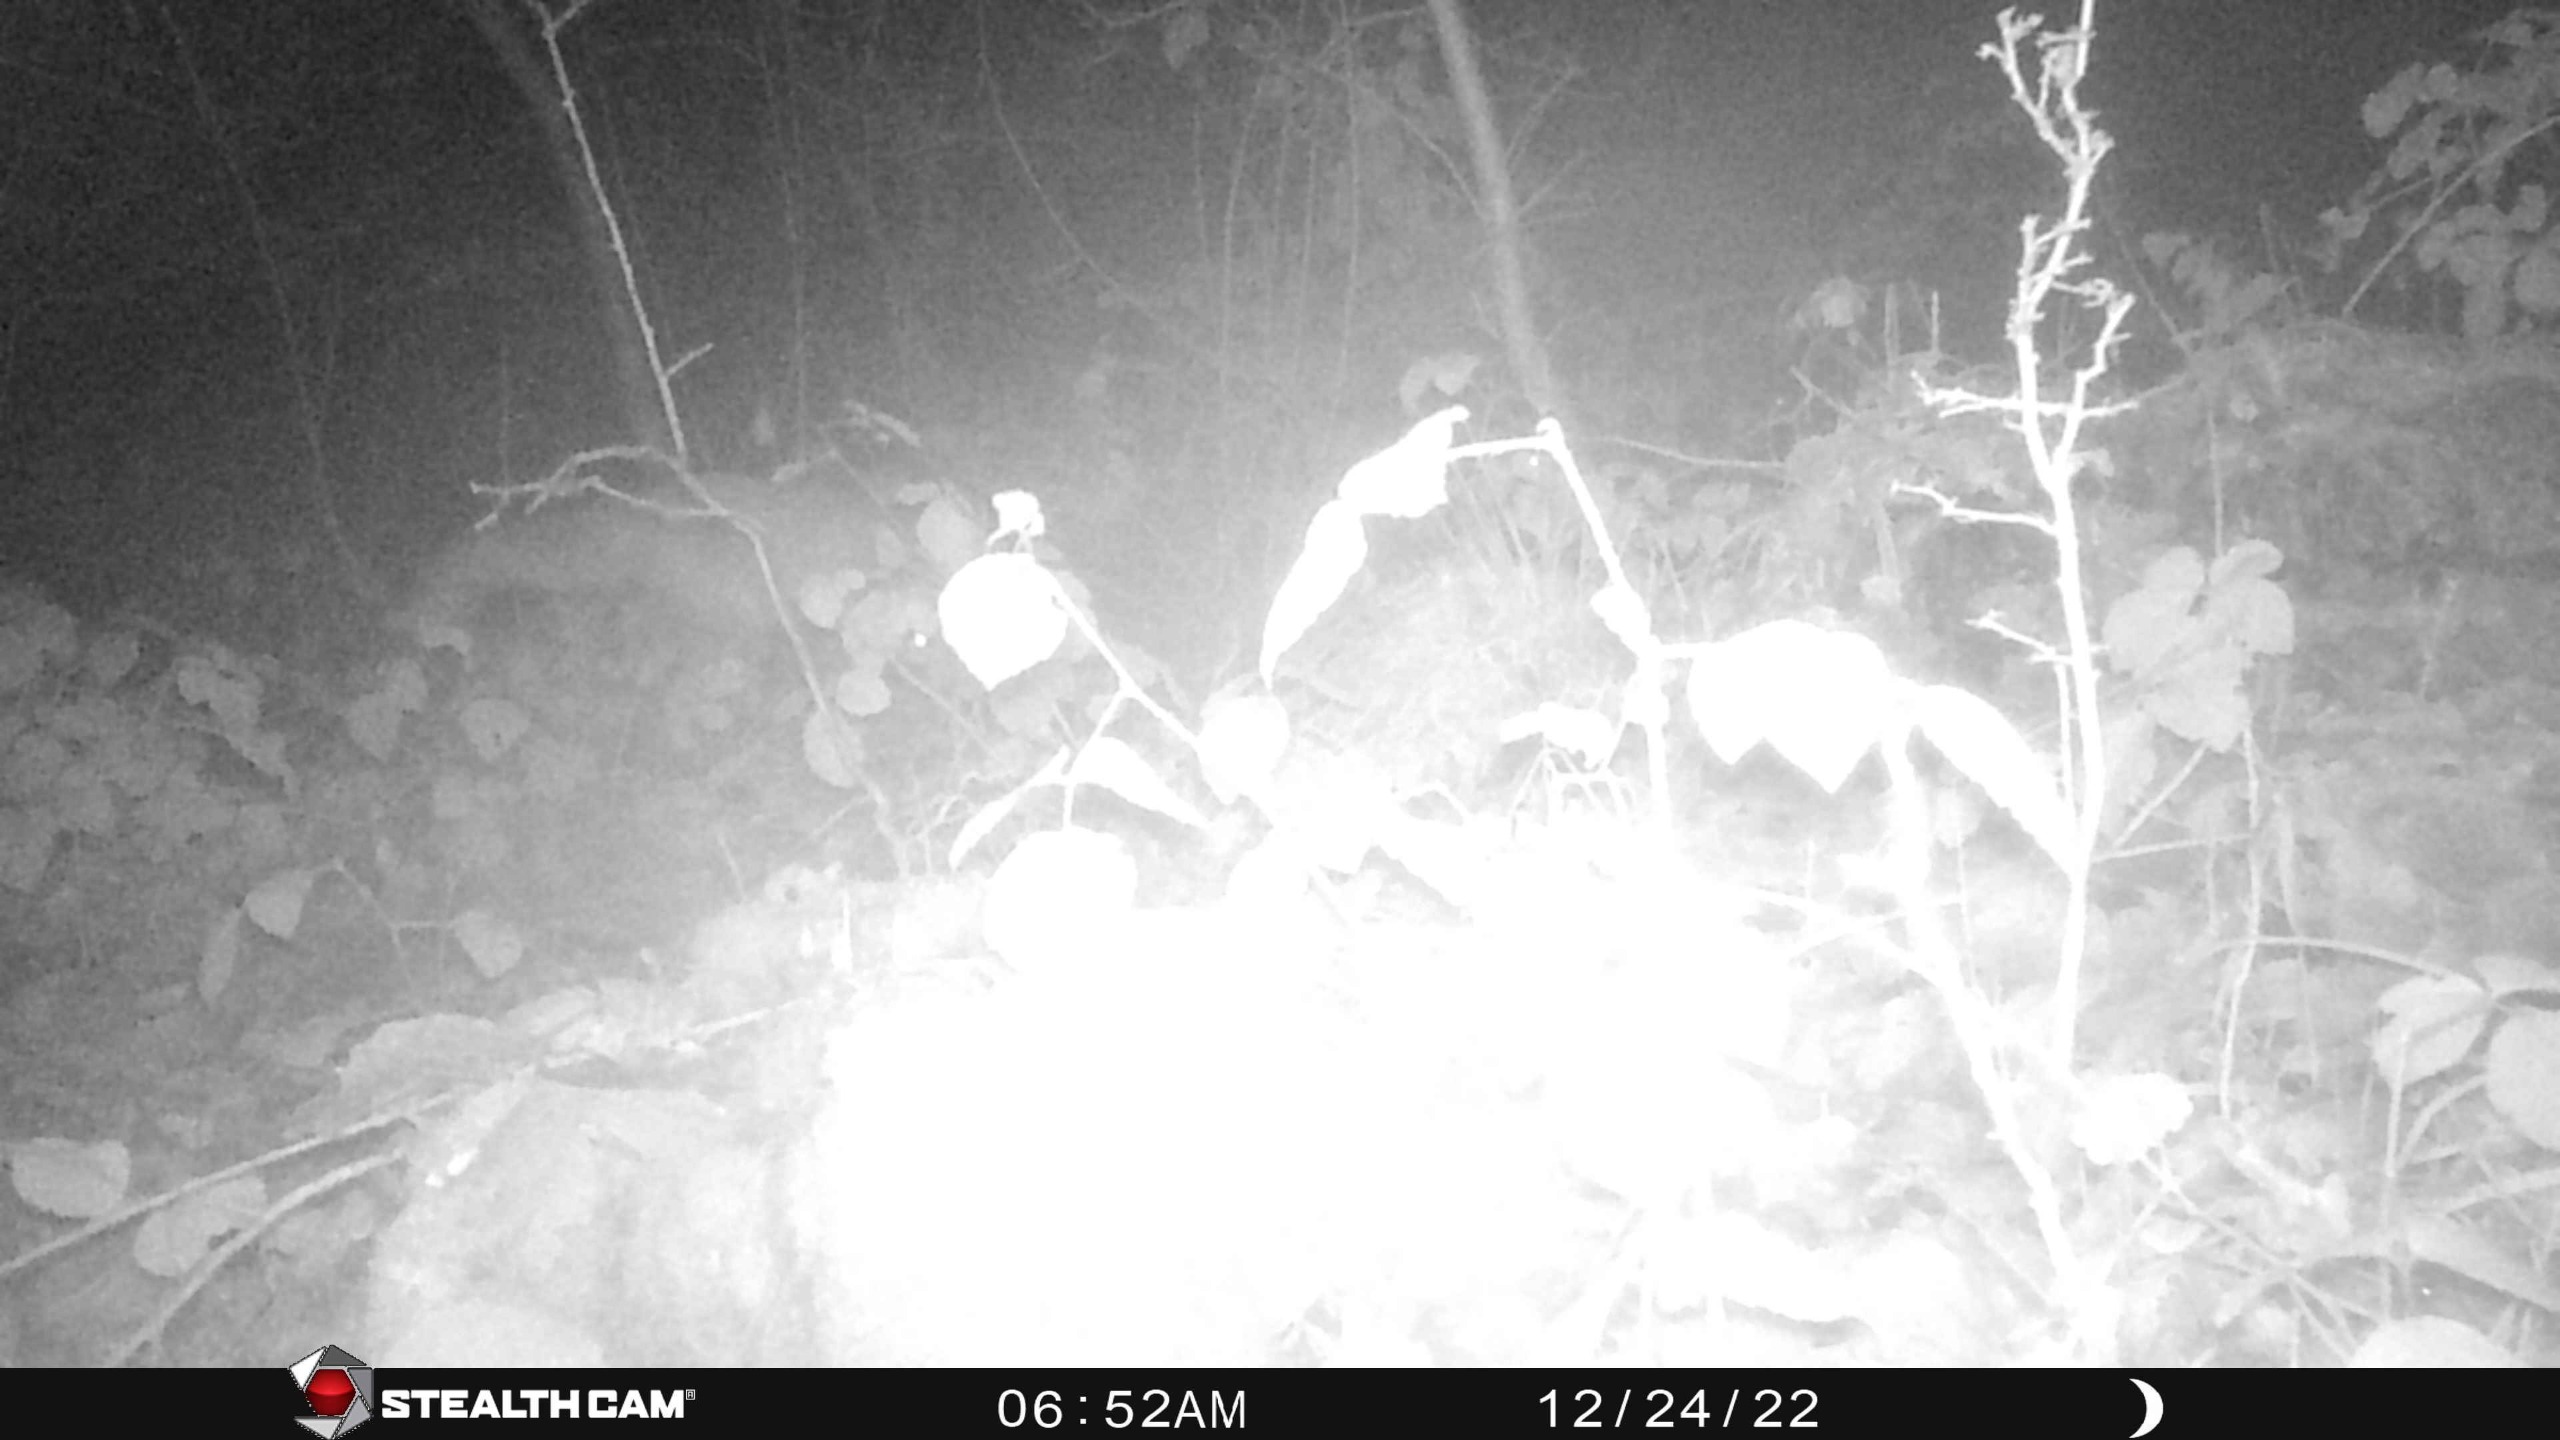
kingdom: Animalia
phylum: Chordata
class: Mammalia
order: Carnivora
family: Canidae
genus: Vulpes
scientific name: Vulpes vulpes
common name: Ræv
